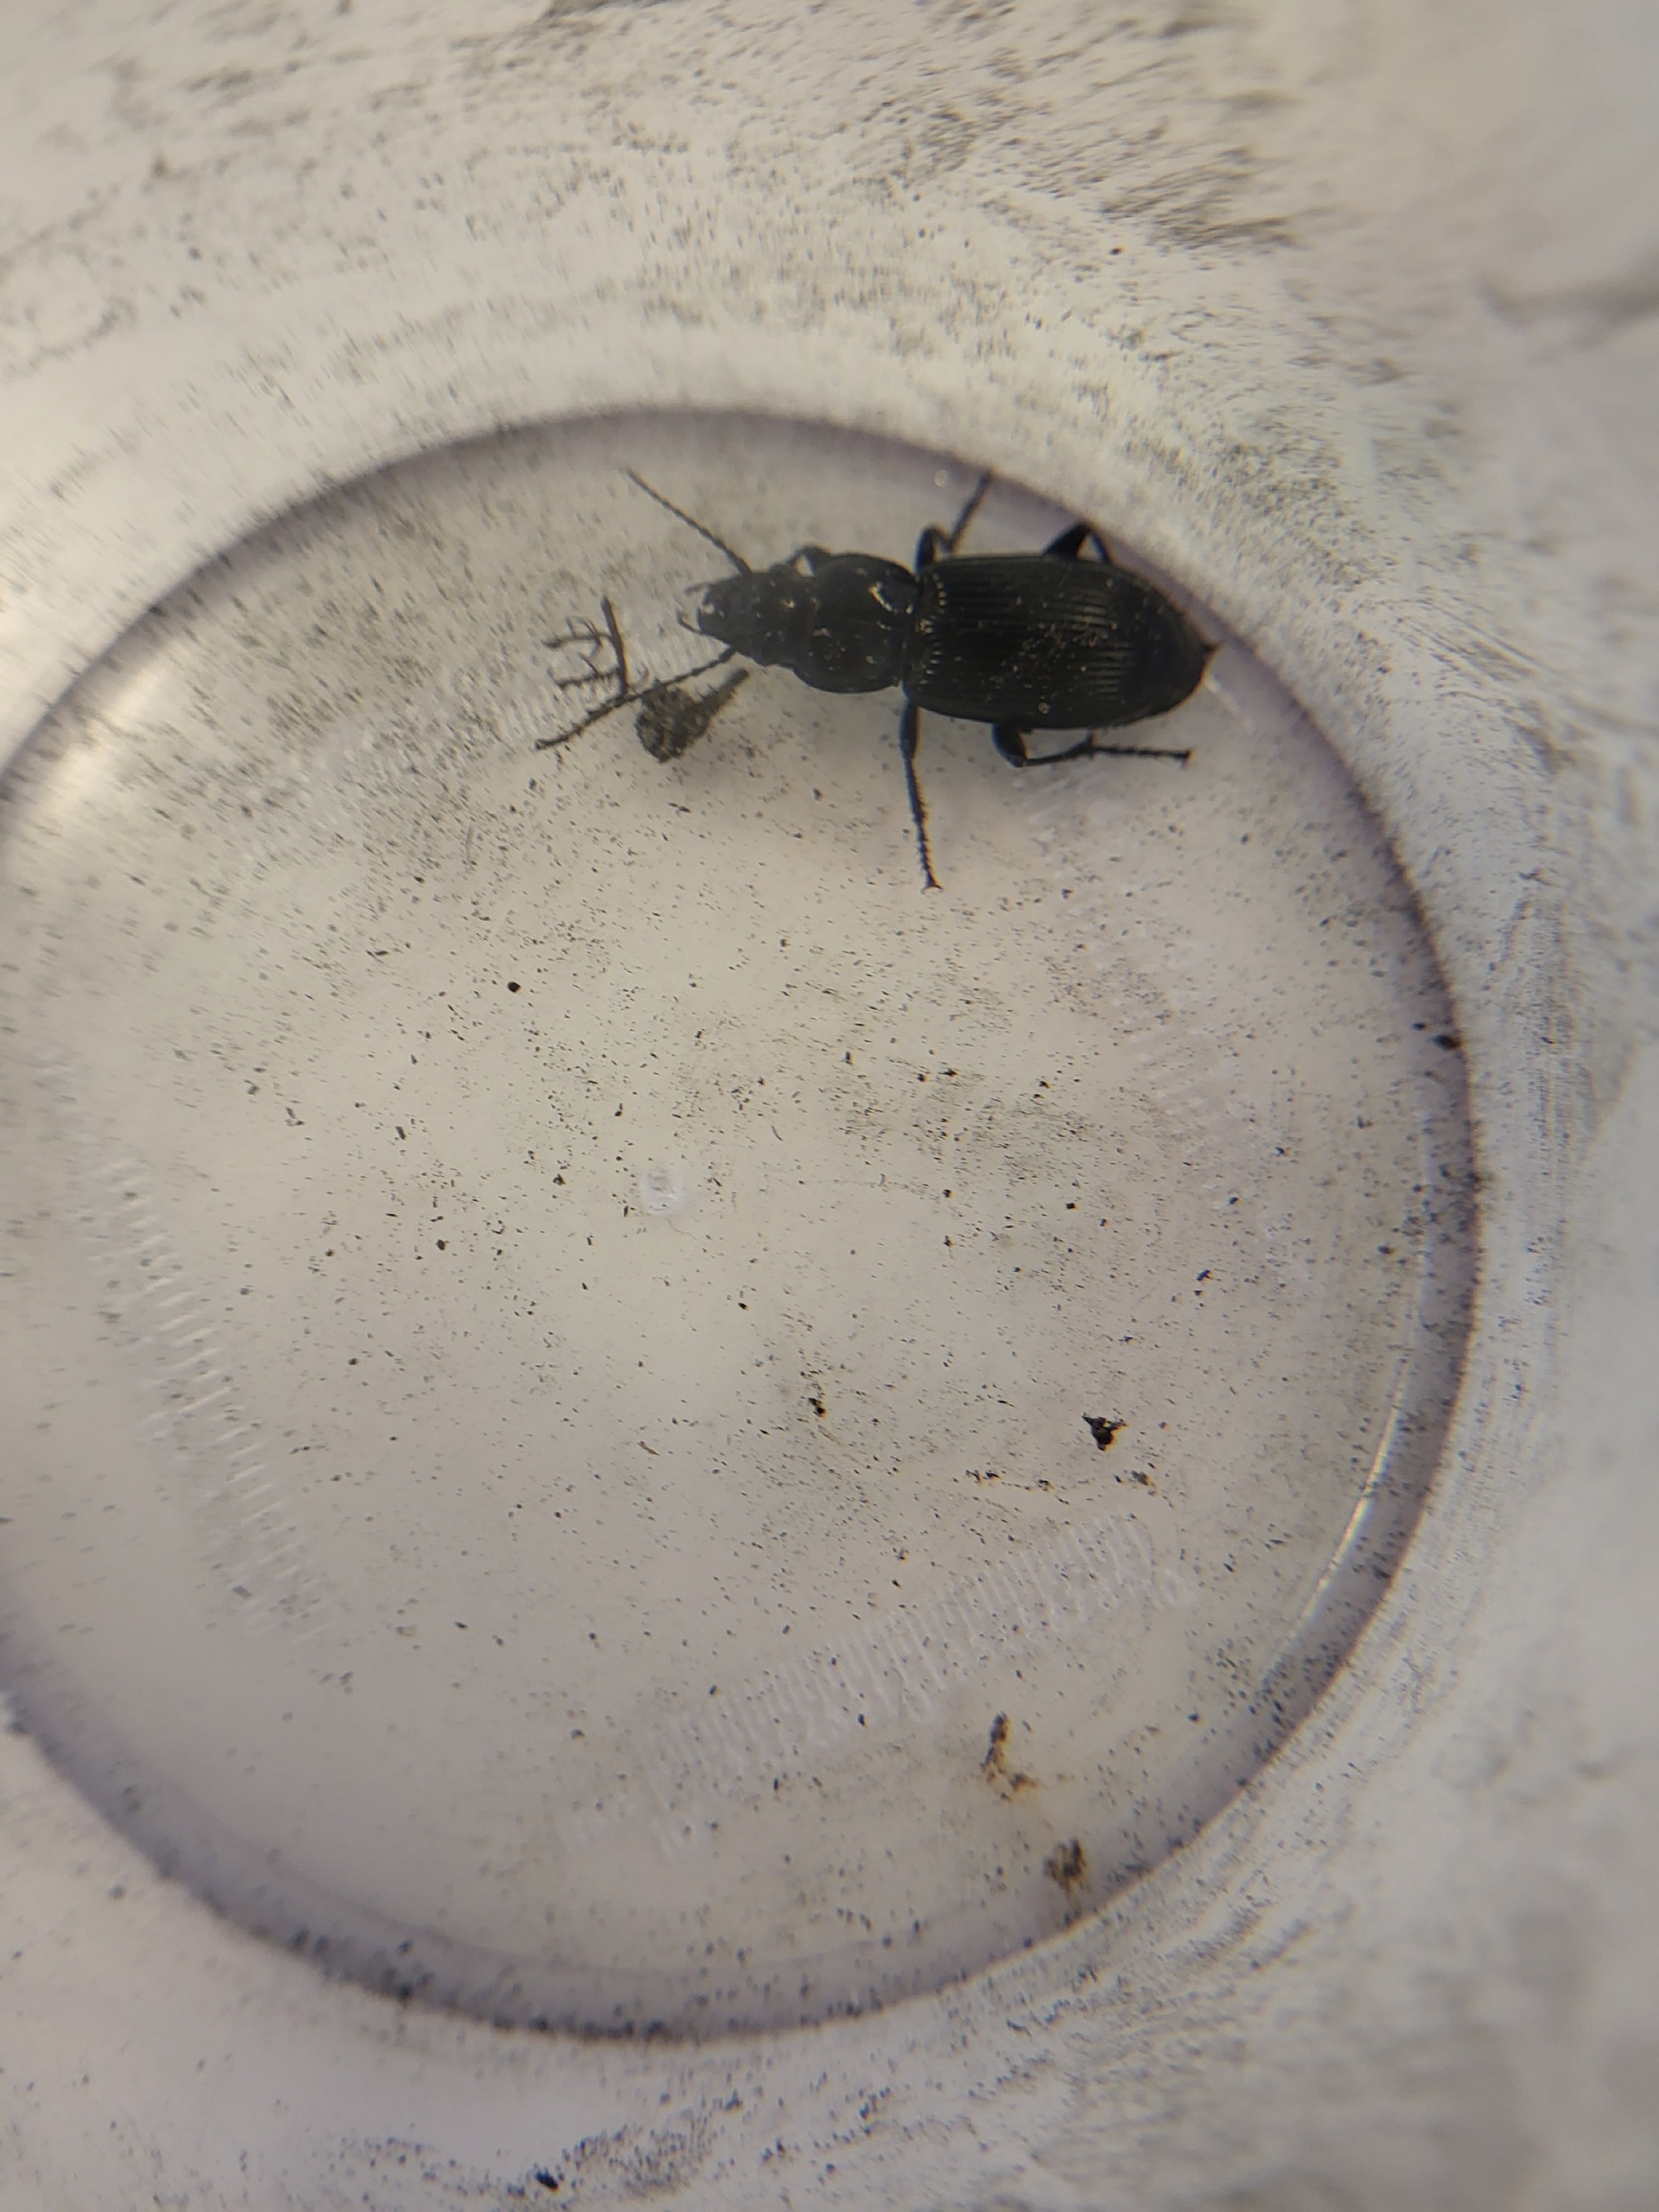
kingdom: Animalia
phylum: Arthropoda
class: Insecta
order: Coleoptera
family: Carabidae
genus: Pterostichus
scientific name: Pterostichus
